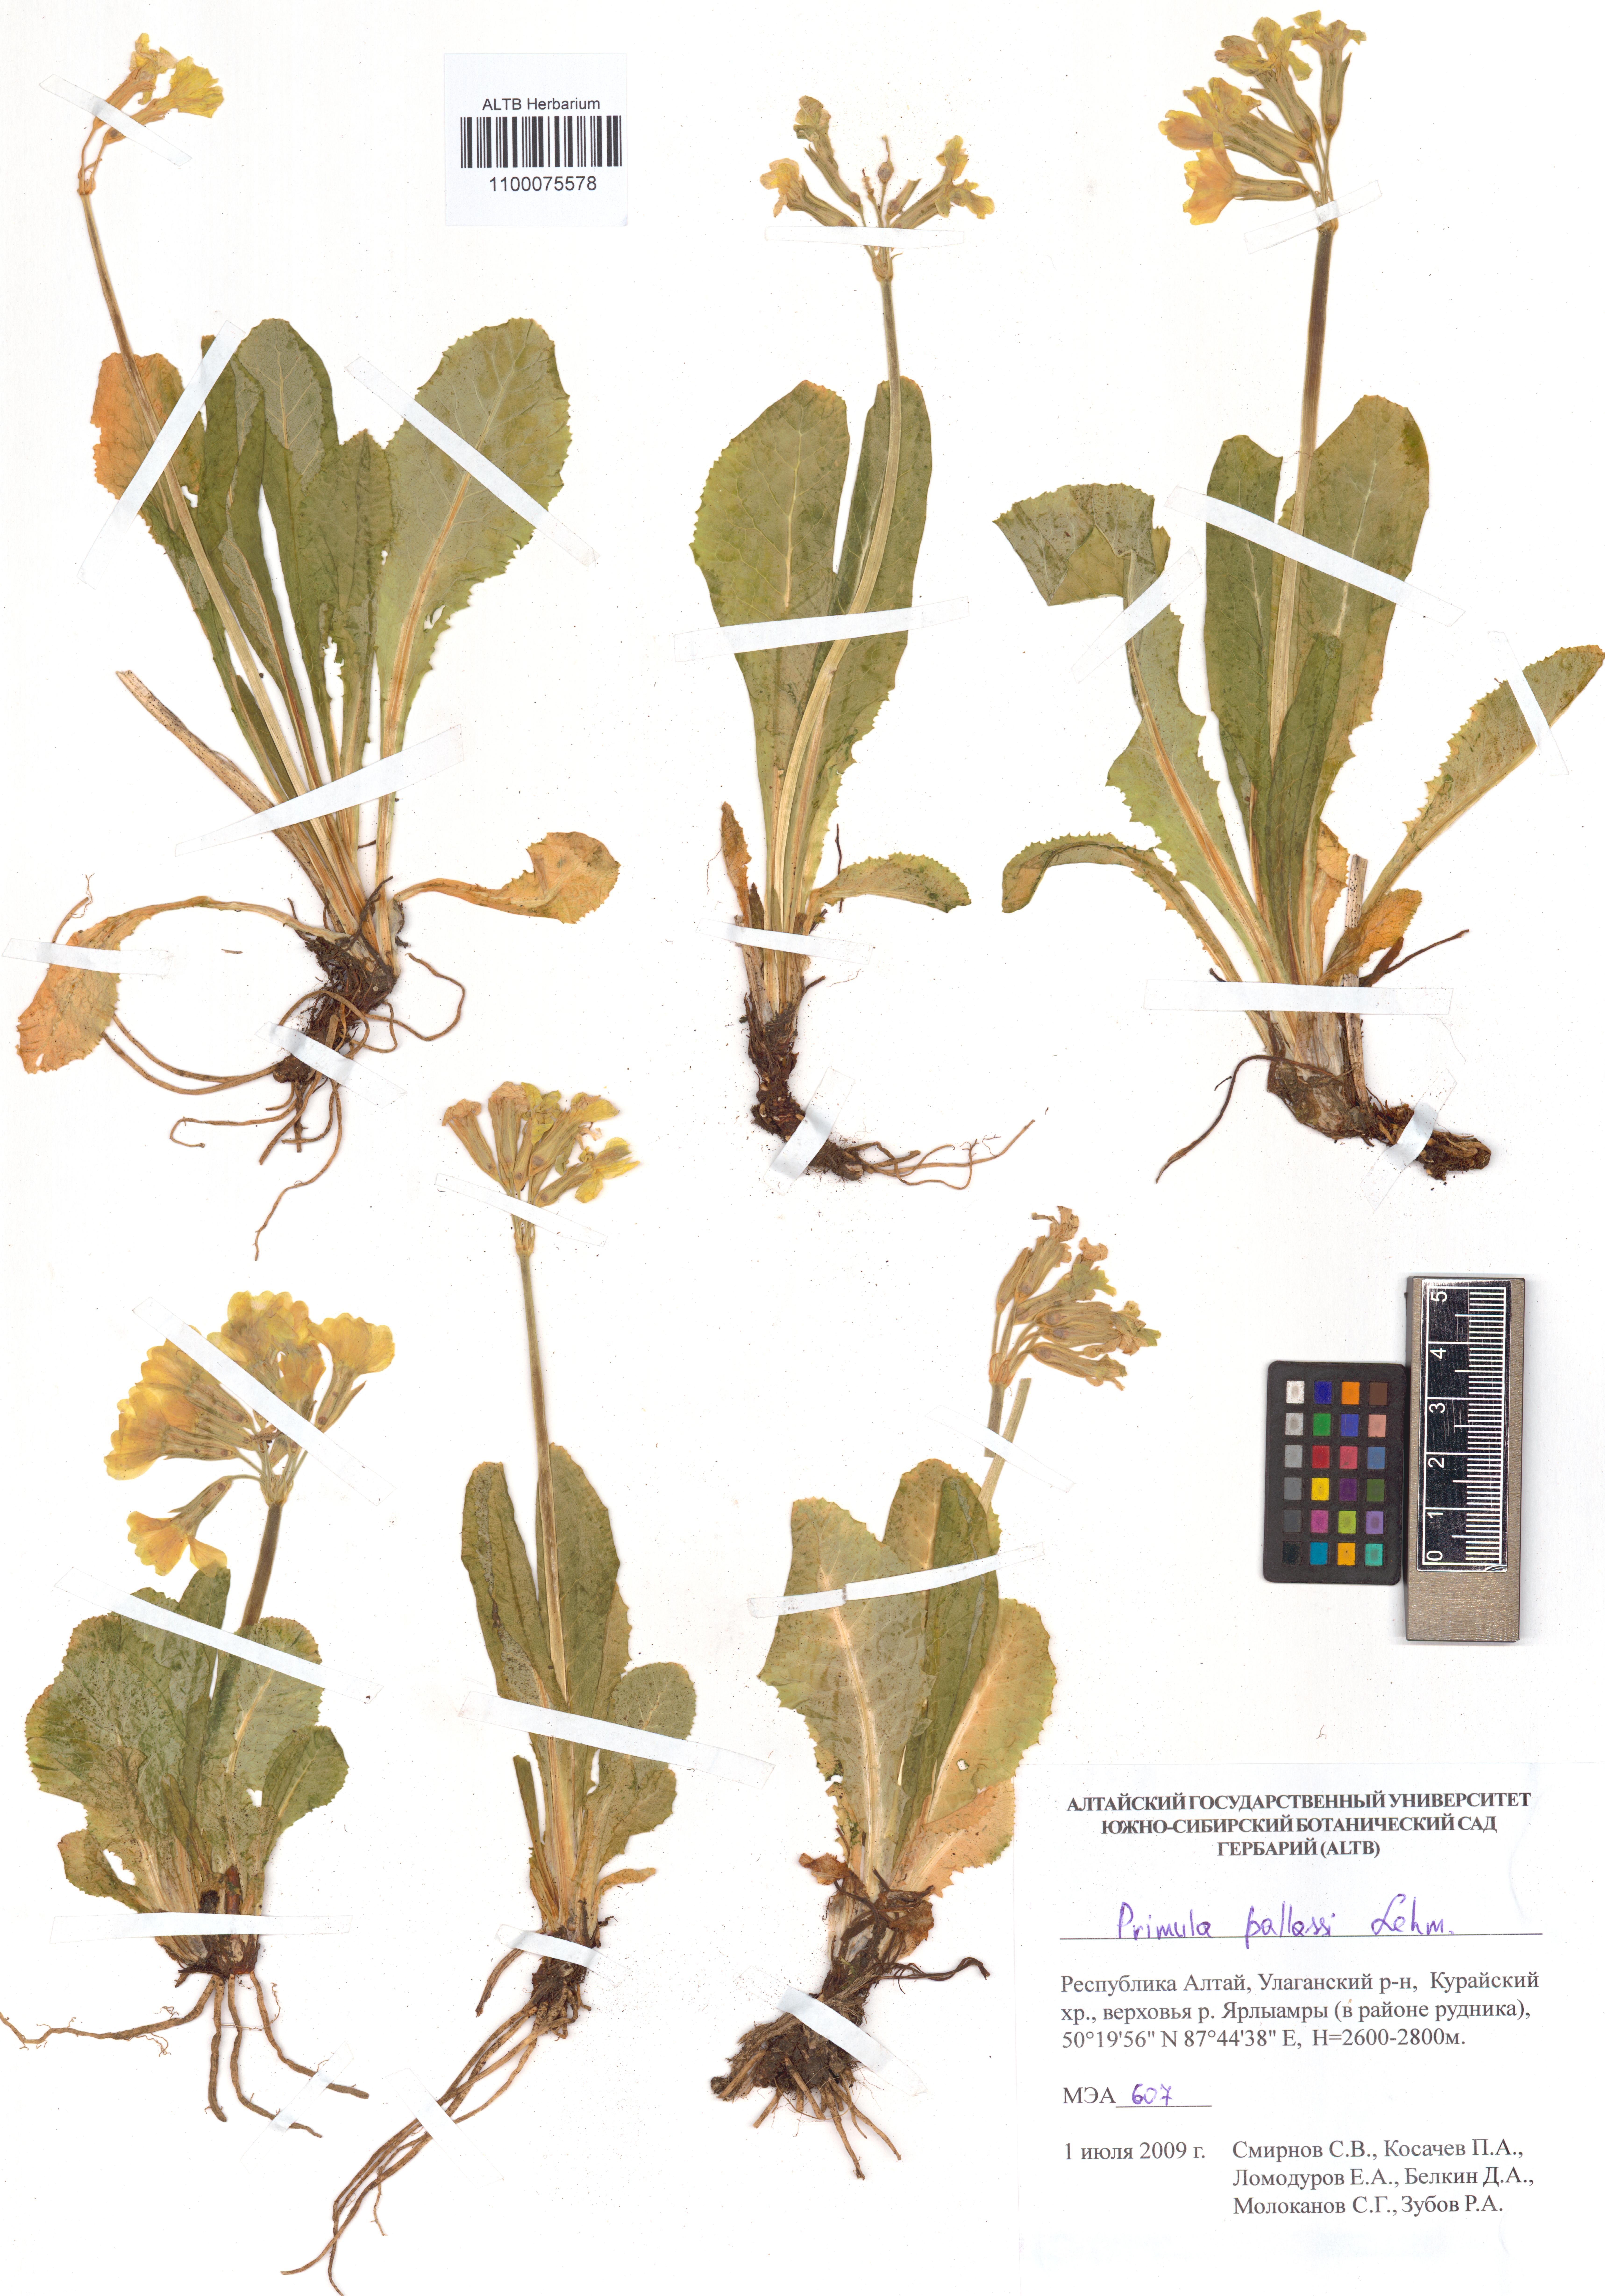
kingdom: Plantae
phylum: Tracheophyta
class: Magnoliopsida
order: Ericales
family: Primulaceae
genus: Primula
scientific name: Primula elatior
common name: Oxlip
